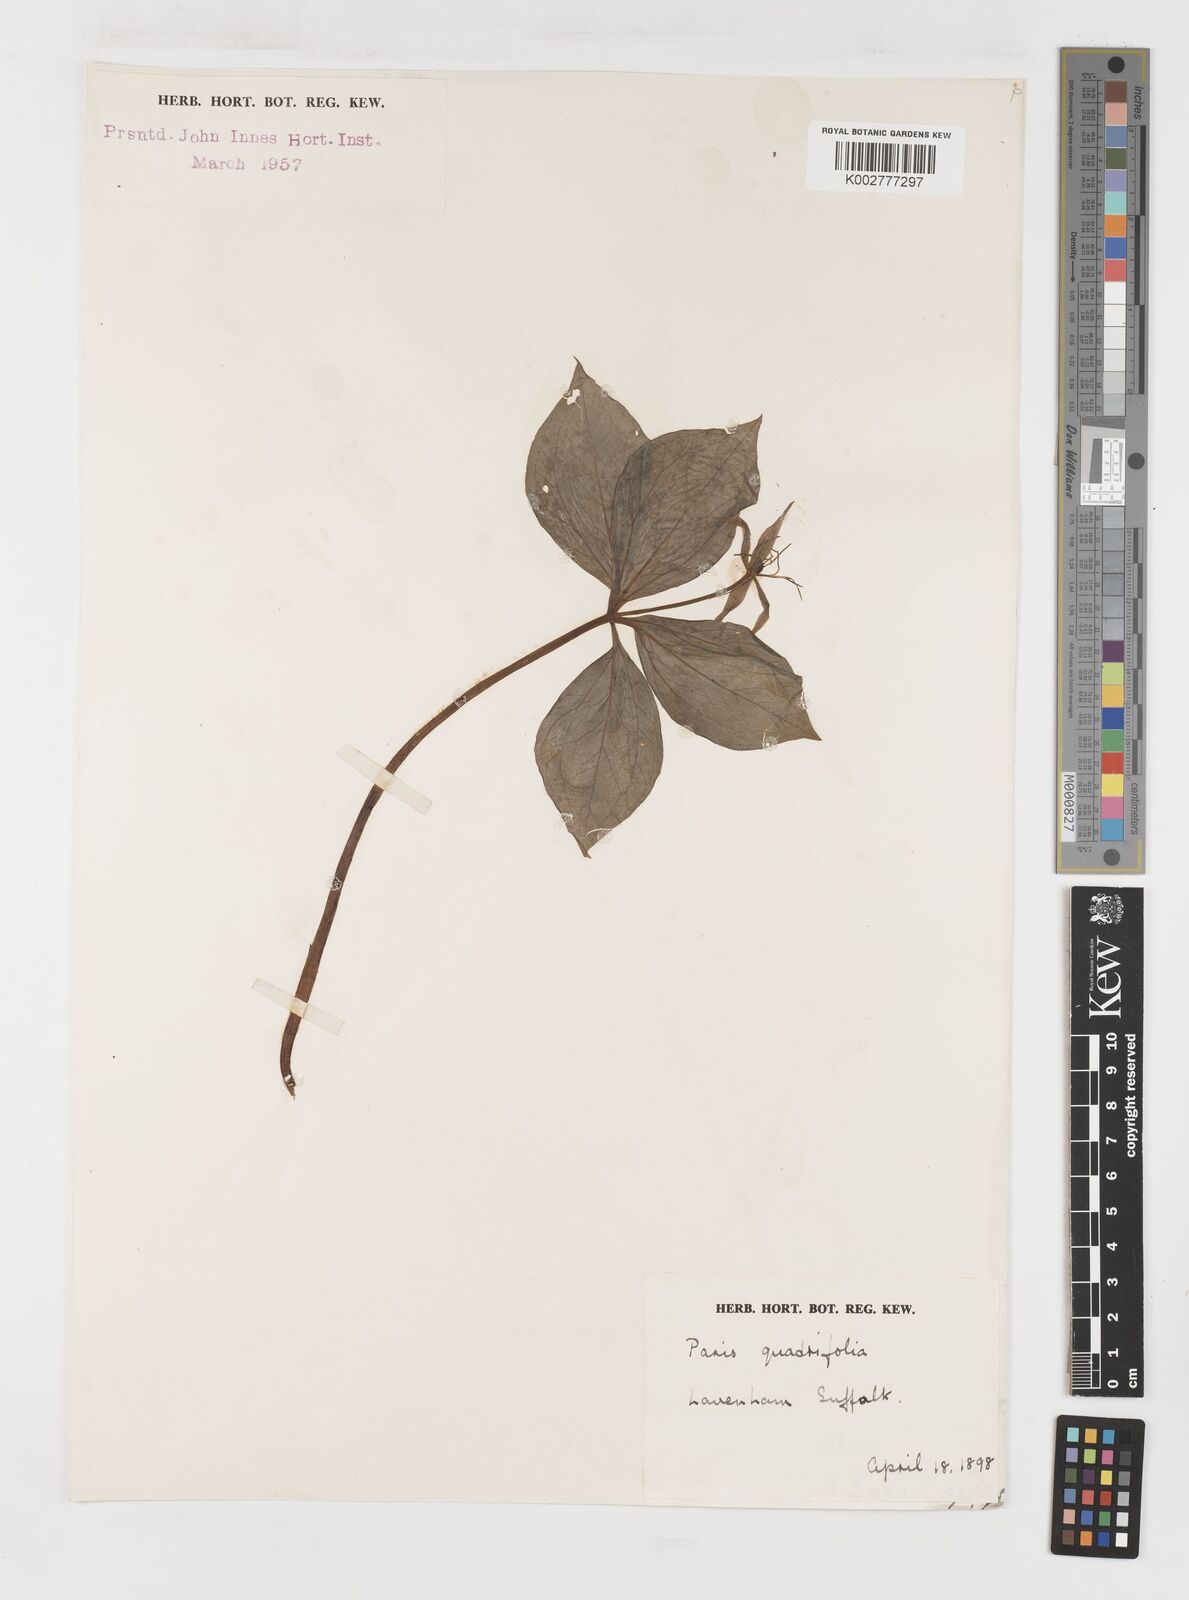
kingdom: Plantae
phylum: Tracheophyta
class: Liliopsida
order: Liliales
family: Melanthiaceae
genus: Paris
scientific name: Paris quadrifolia
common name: Herb-paris
